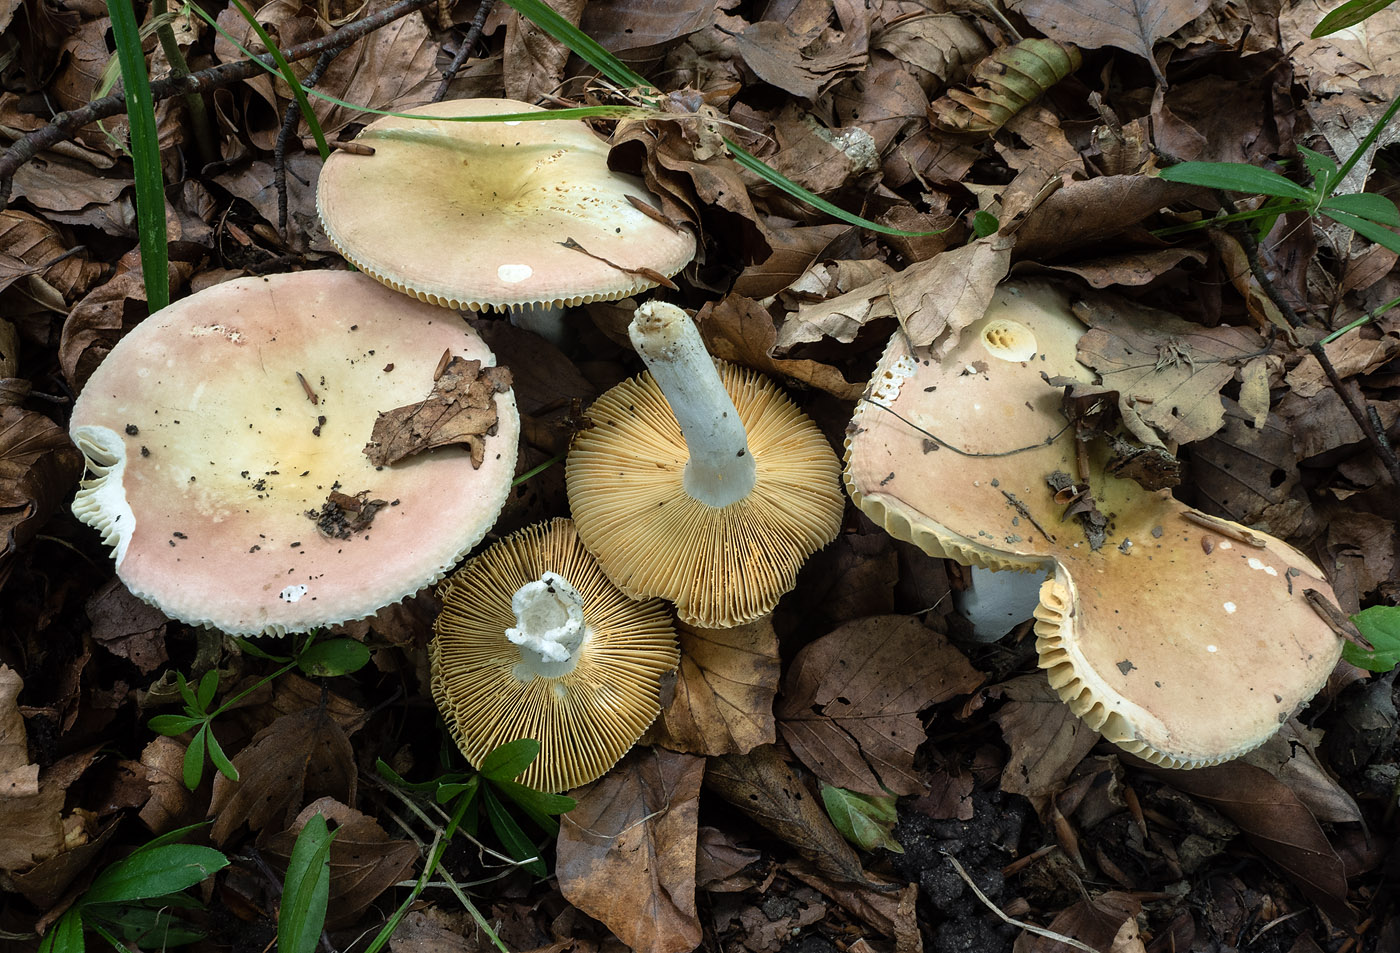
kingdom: Fungi
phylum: Basidiomycota
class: Agaricomycetes
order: Russulales
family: Russulaceae
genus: Russula
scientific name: Russula veternosa
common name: blødkødet skørhat
